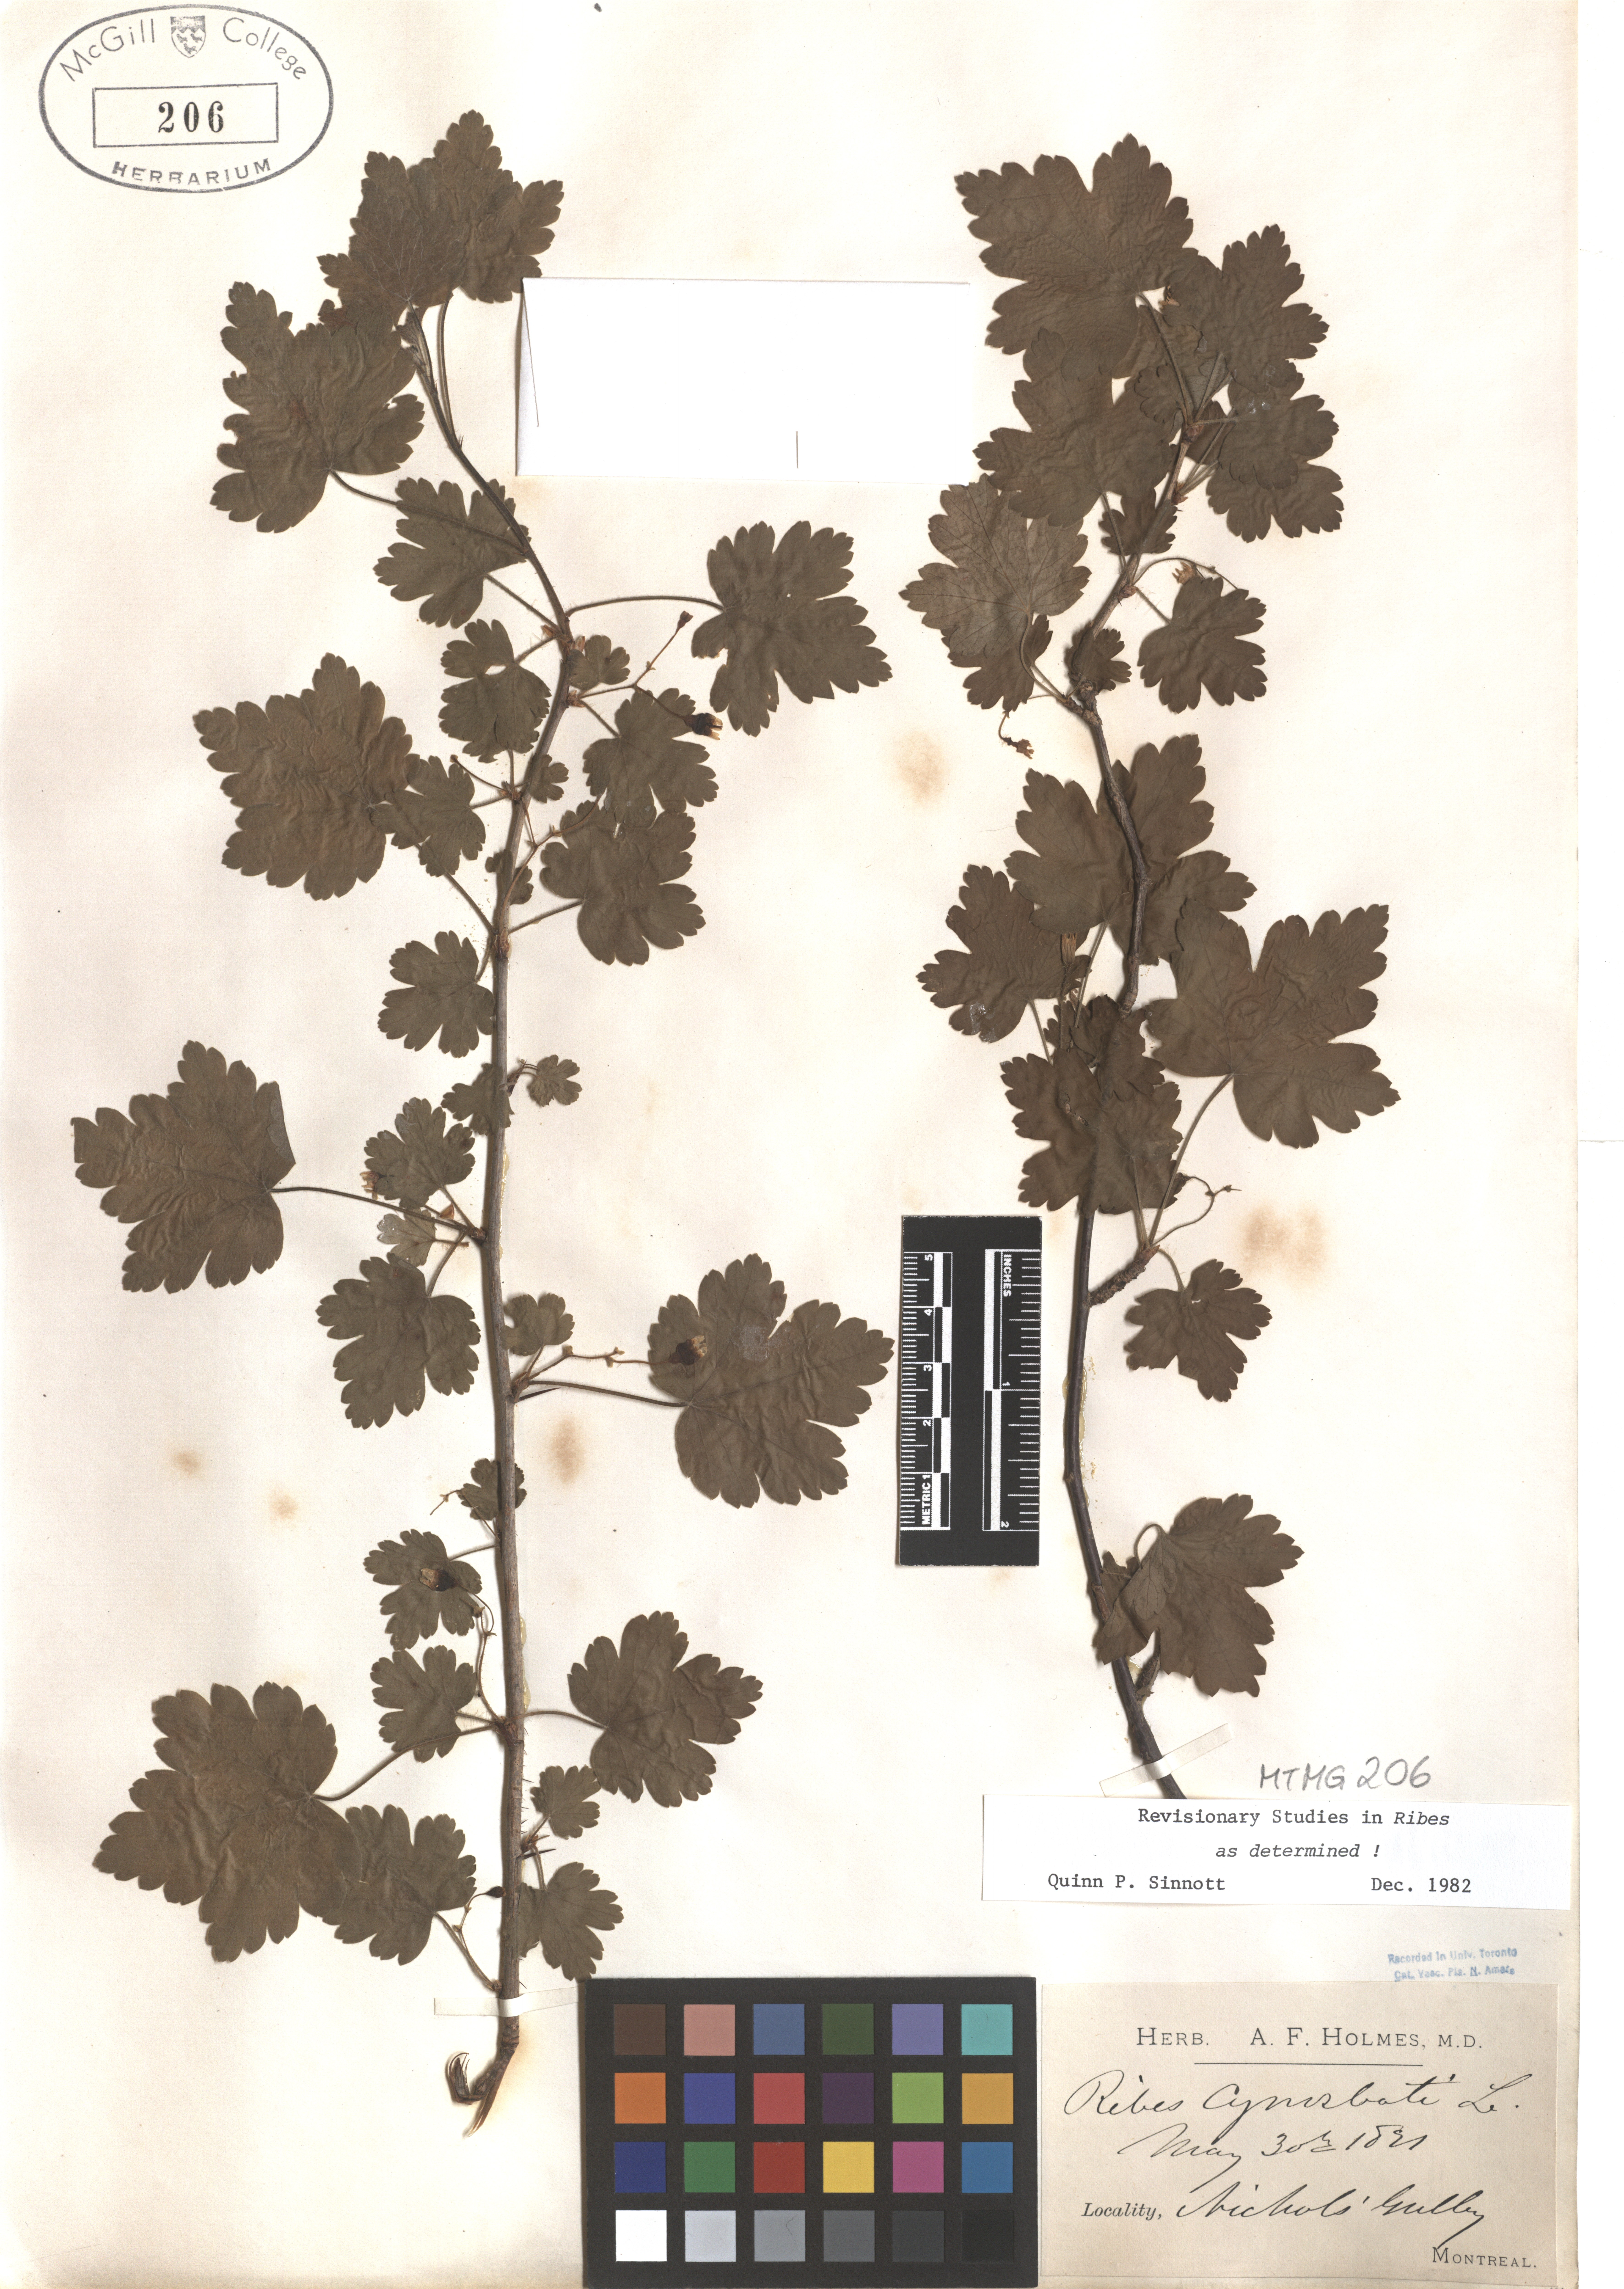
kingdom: Plantae
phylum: Tracheophyta
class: Magnoliopsida
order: Saxifragales
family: Grossulariaceae
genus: Ribes
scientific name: Ribes cynosbati
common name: American gooseberry
